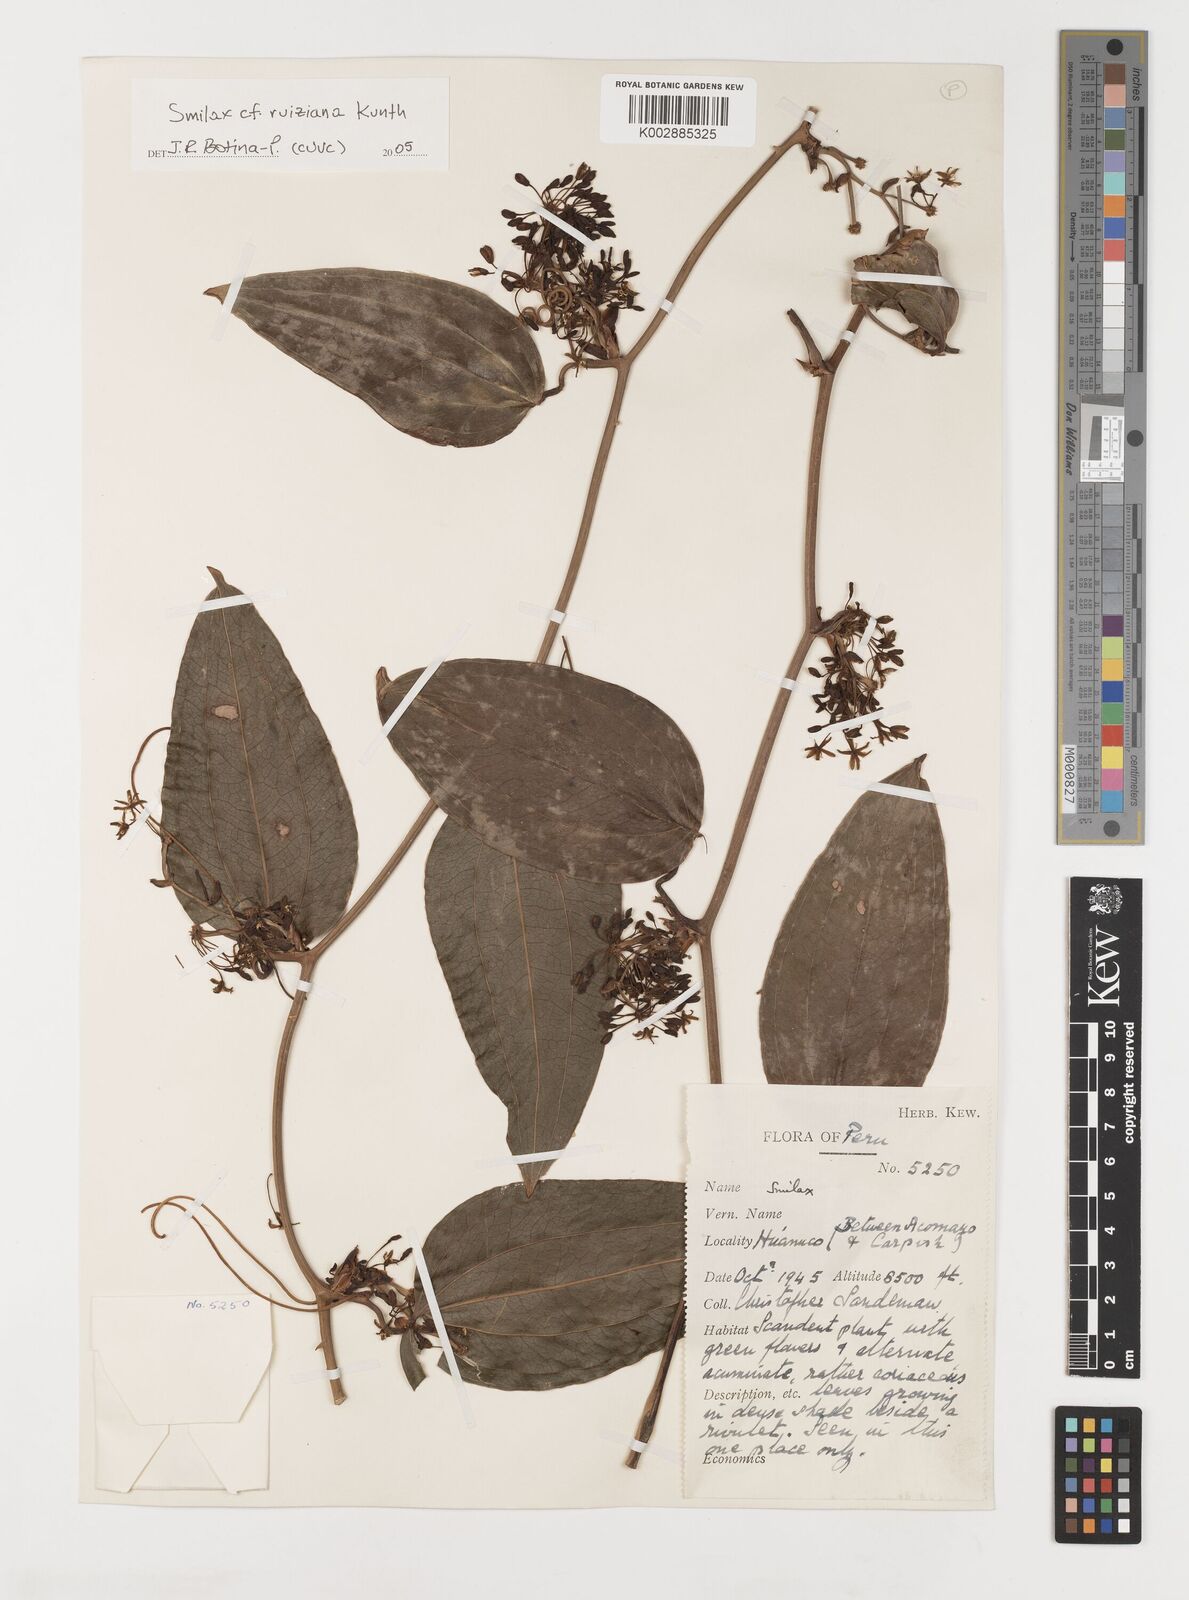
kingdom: Plantae
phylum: Tracheophyta
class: Liliopsida
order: Liliales
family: Smilacaceae
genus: Smilax
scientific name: Smilax purhampuy
